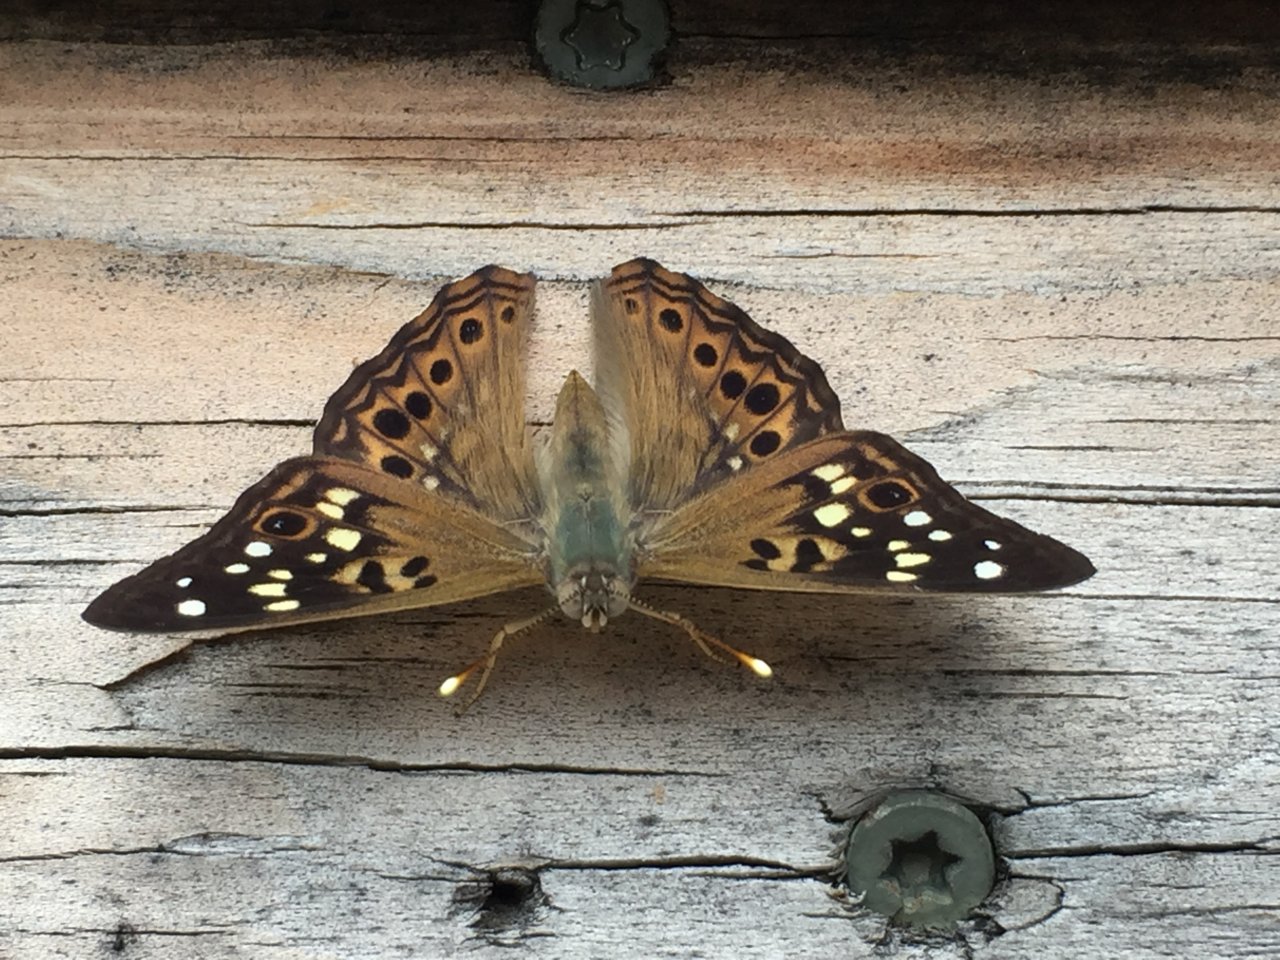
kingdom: Animalia
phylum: Arthropoda
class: Insecta
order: Lepidoptera
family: Nymphalidae
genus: Asterocampa
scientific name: Asterocampa celtis
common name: Hackberry Emperor
